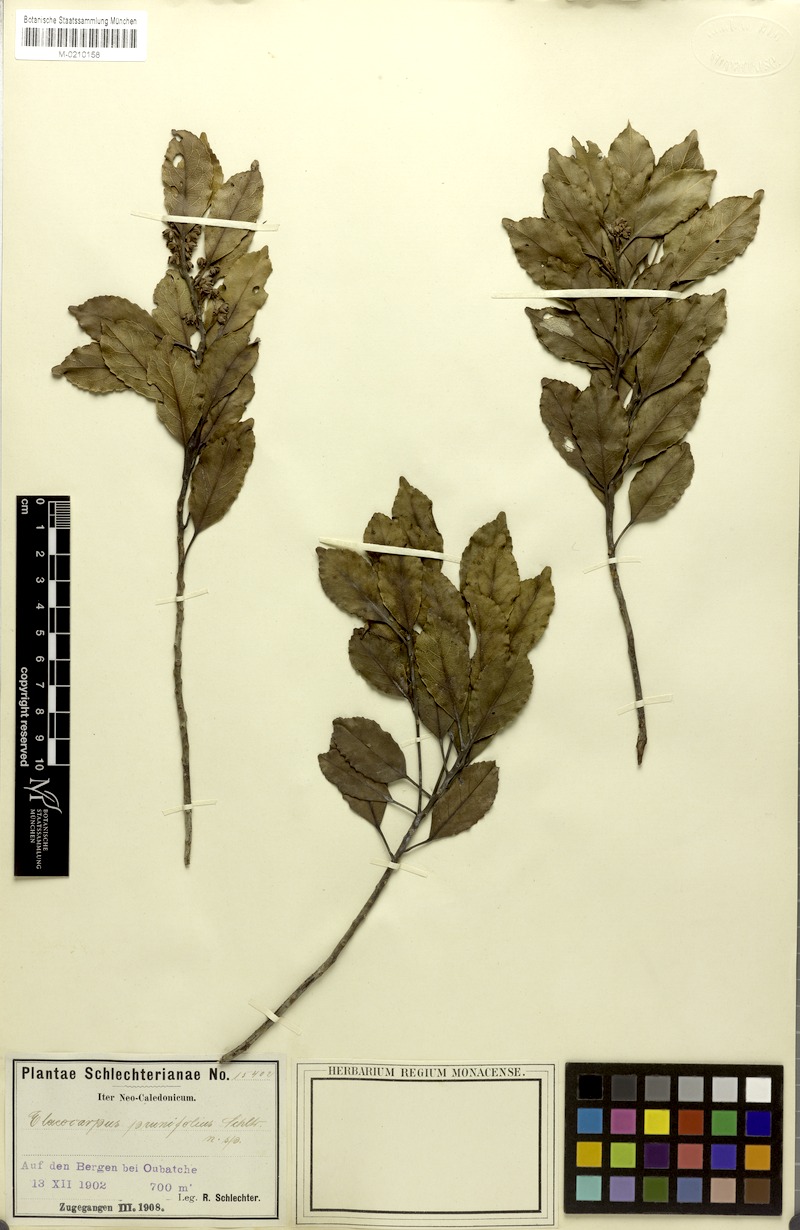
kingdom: Plantae
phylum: Tracheophyta
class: Magnoliopsida
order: Oxalidales
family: Elaeocarpaceae
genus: Elaeocarpus
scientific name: Elaeocarpus dognyensis
